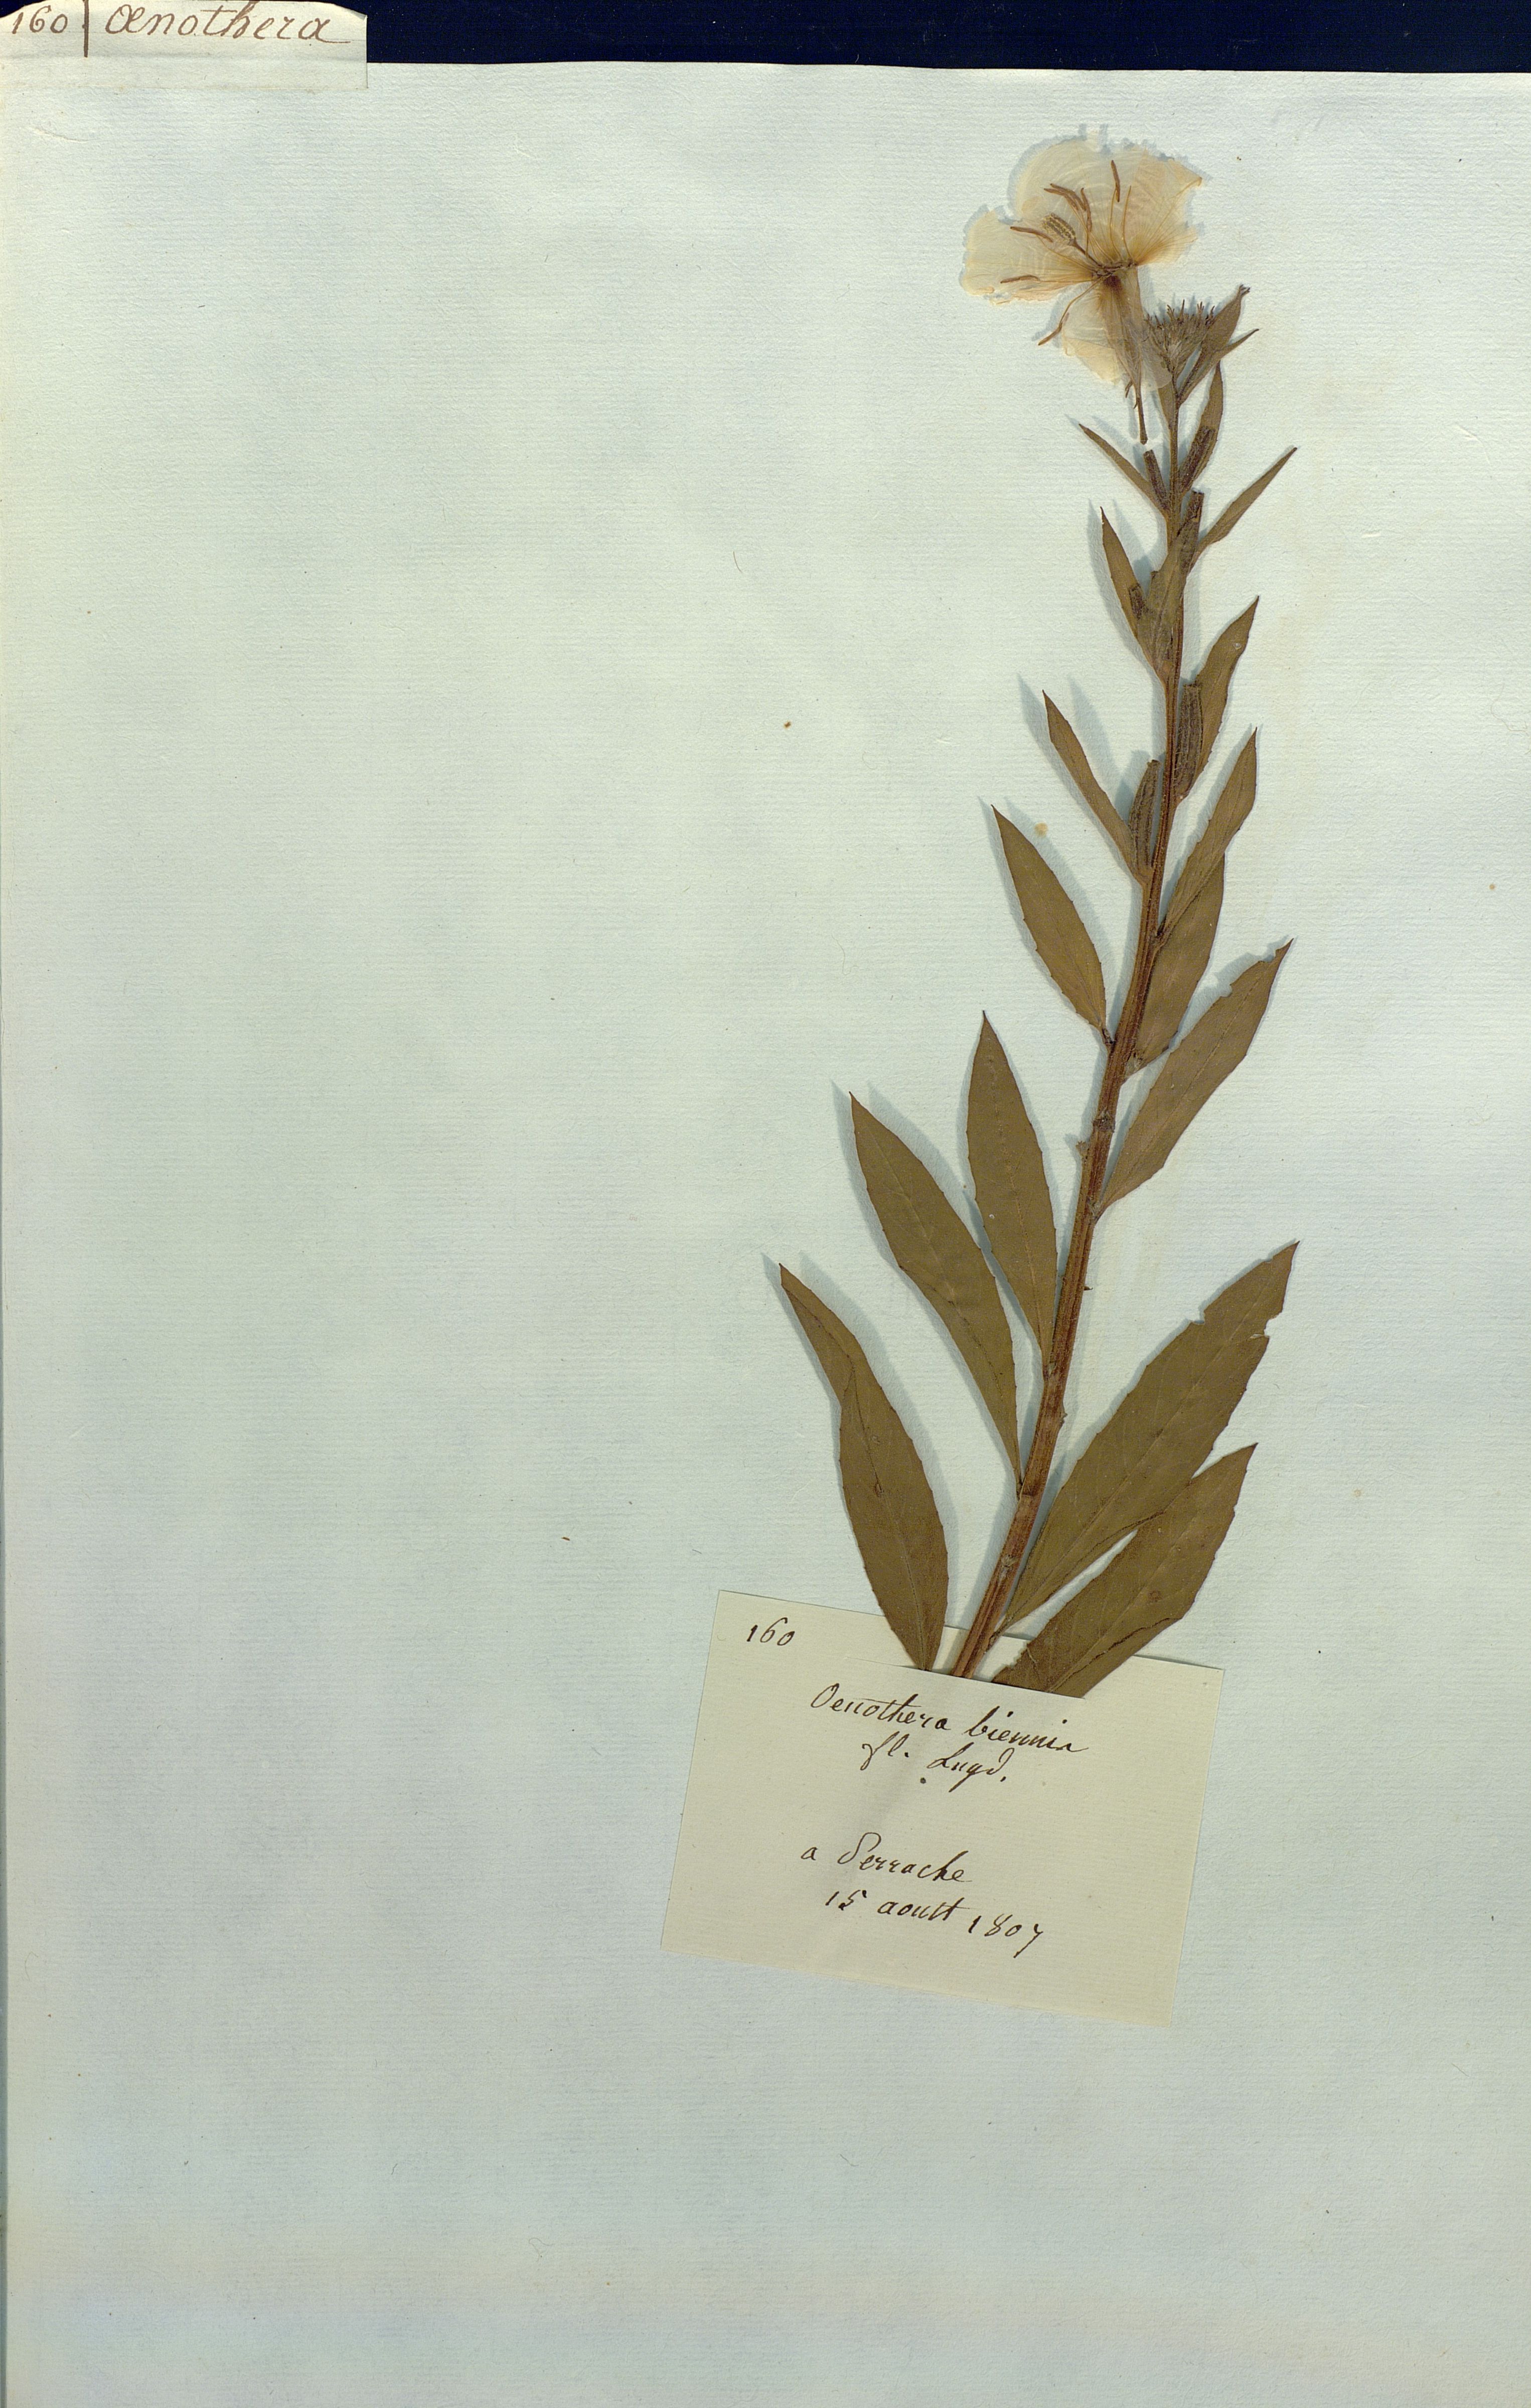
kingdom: Plantae
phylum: Tracheophyta
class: Magnoliopsida
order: Myrtales
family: Onagraceae
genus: Oenothera
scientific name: Oenothera biennis
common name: Common evening-primrose
